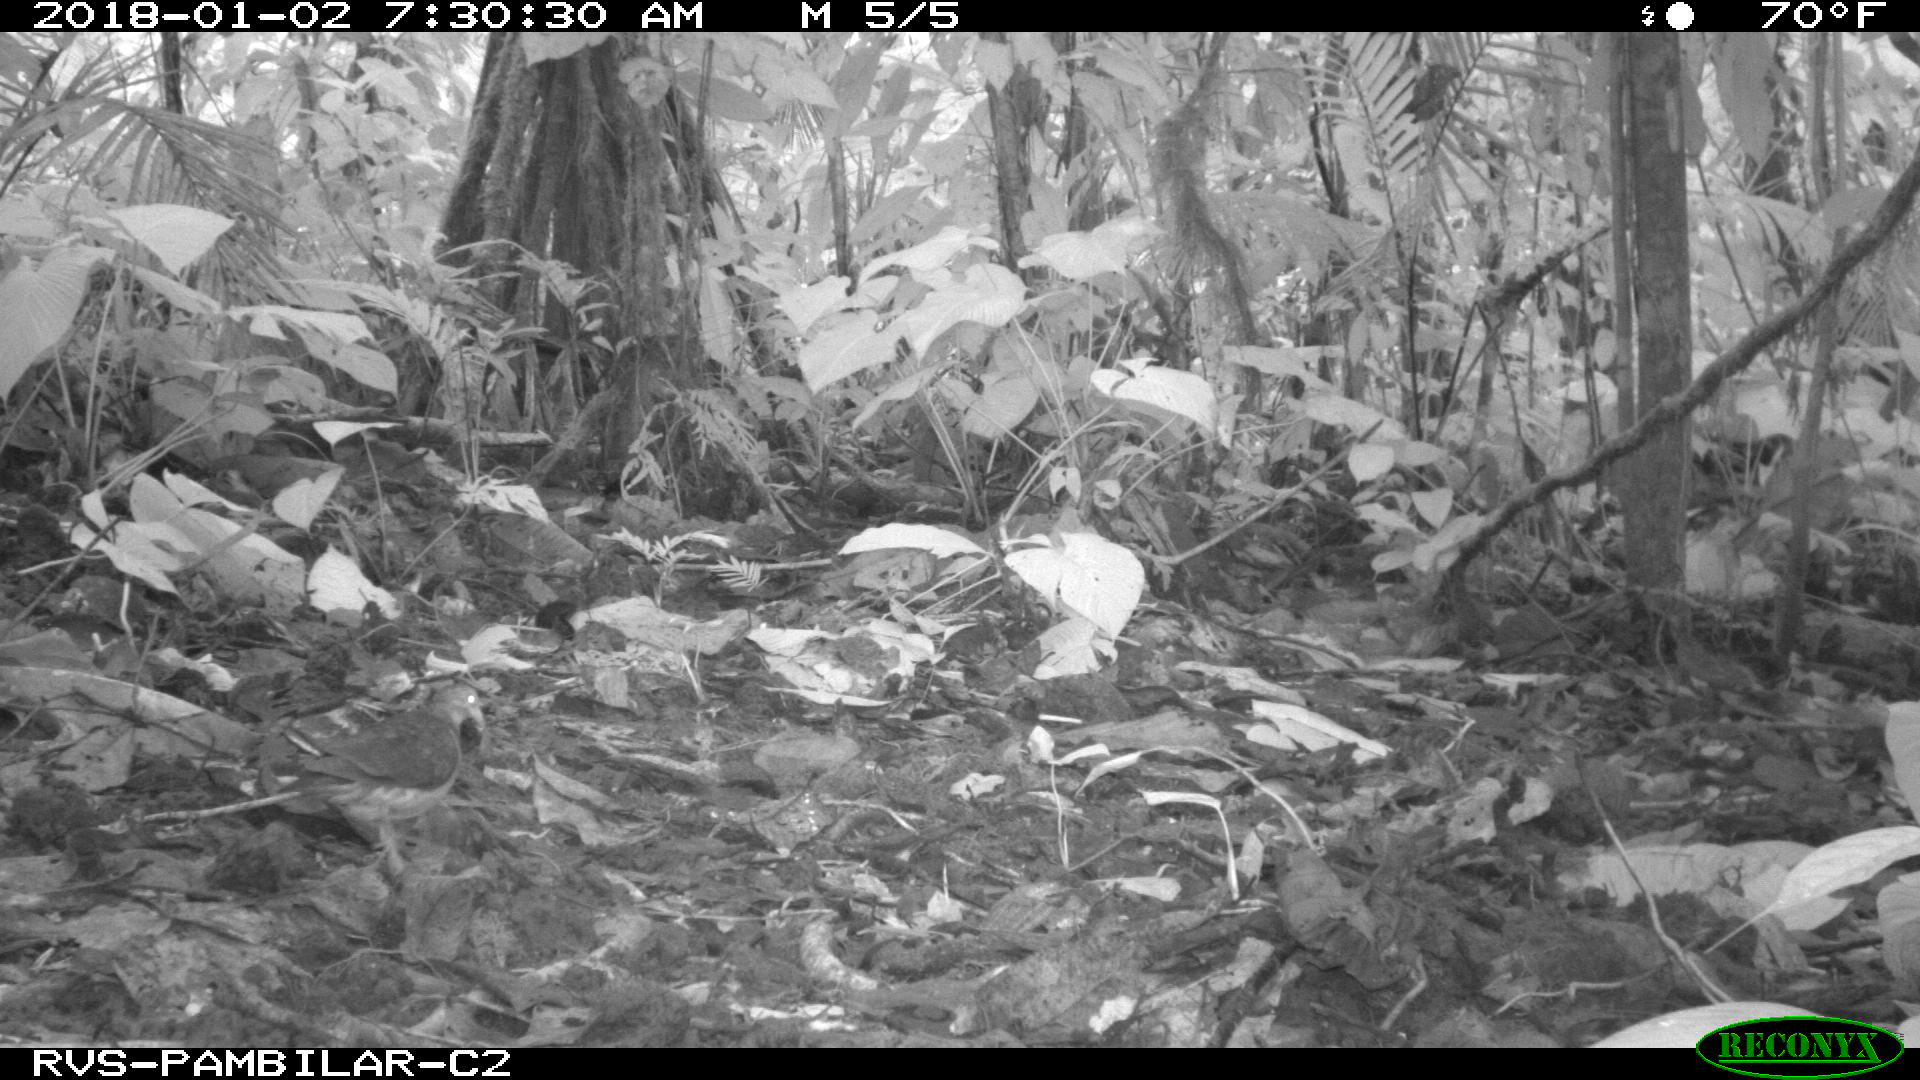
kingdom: Animalia
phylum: Chordata
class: Aves
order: Columbiformes
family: Columbidae
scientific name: Columbidae
